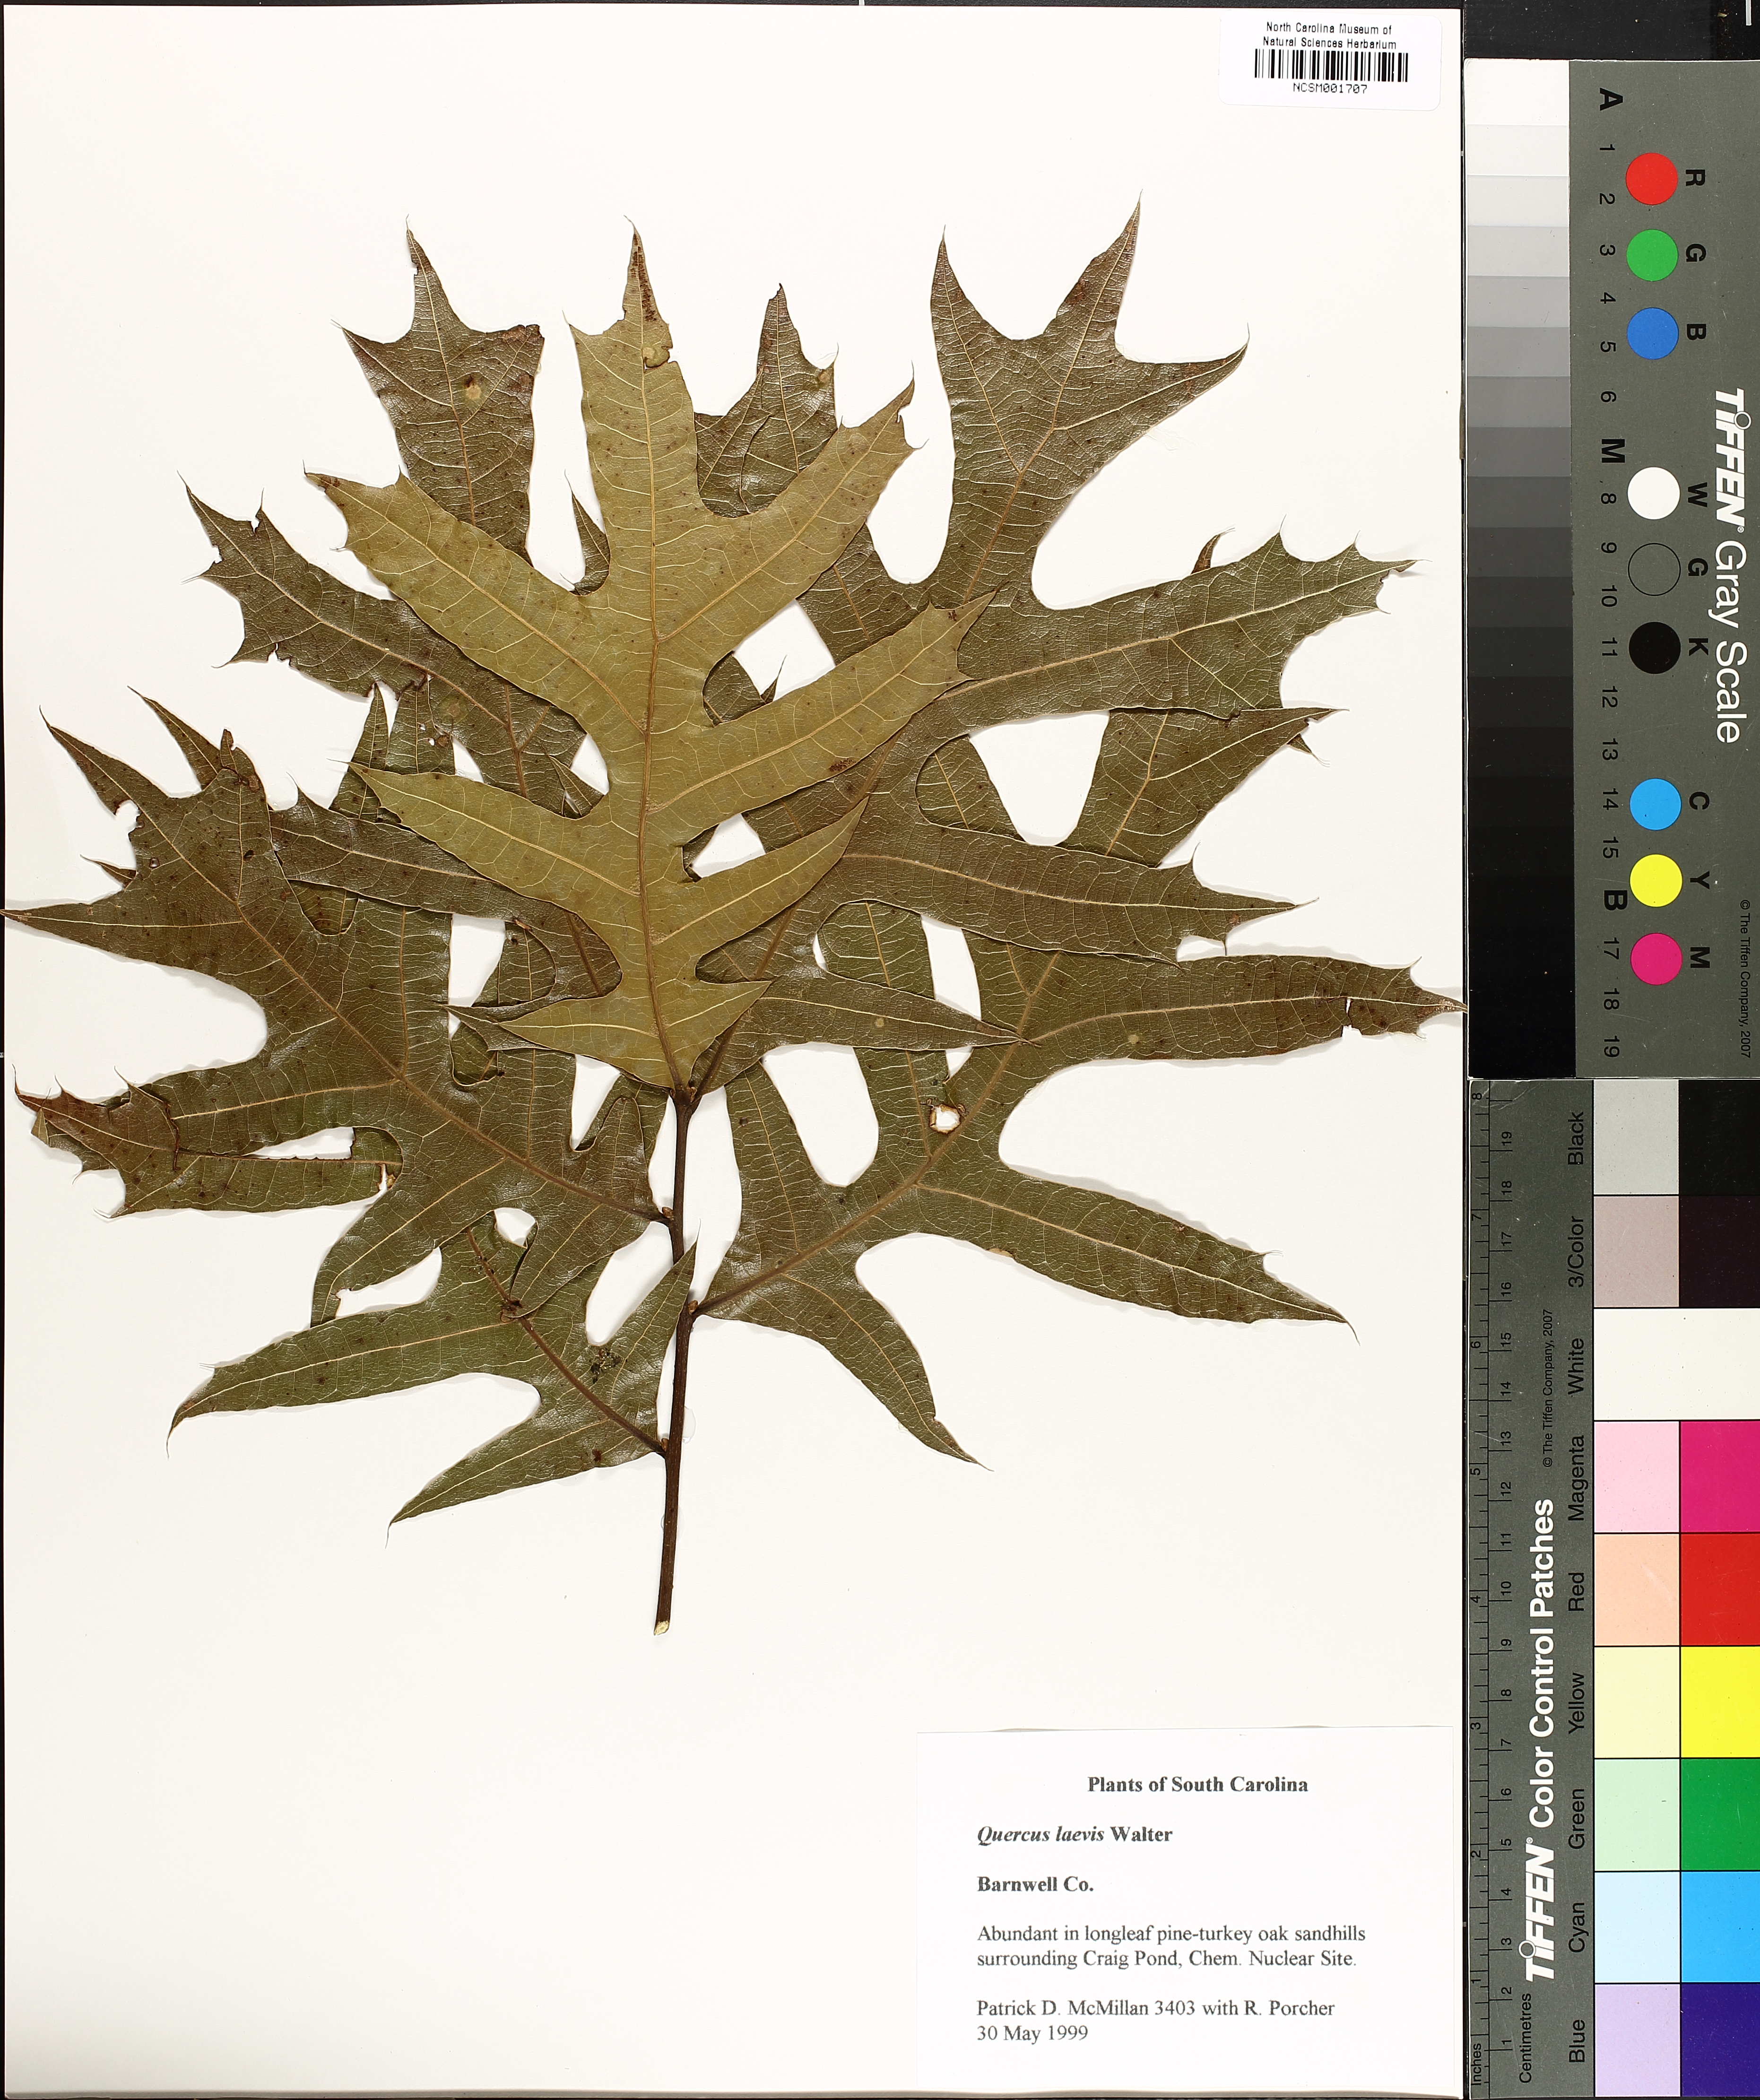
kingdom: Plantae
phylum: Tracheophyta
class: Magnoliopsida
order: Fagales
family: Fagaceae
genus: Quercus
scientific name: Quercus laevis
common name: Turkey oak
